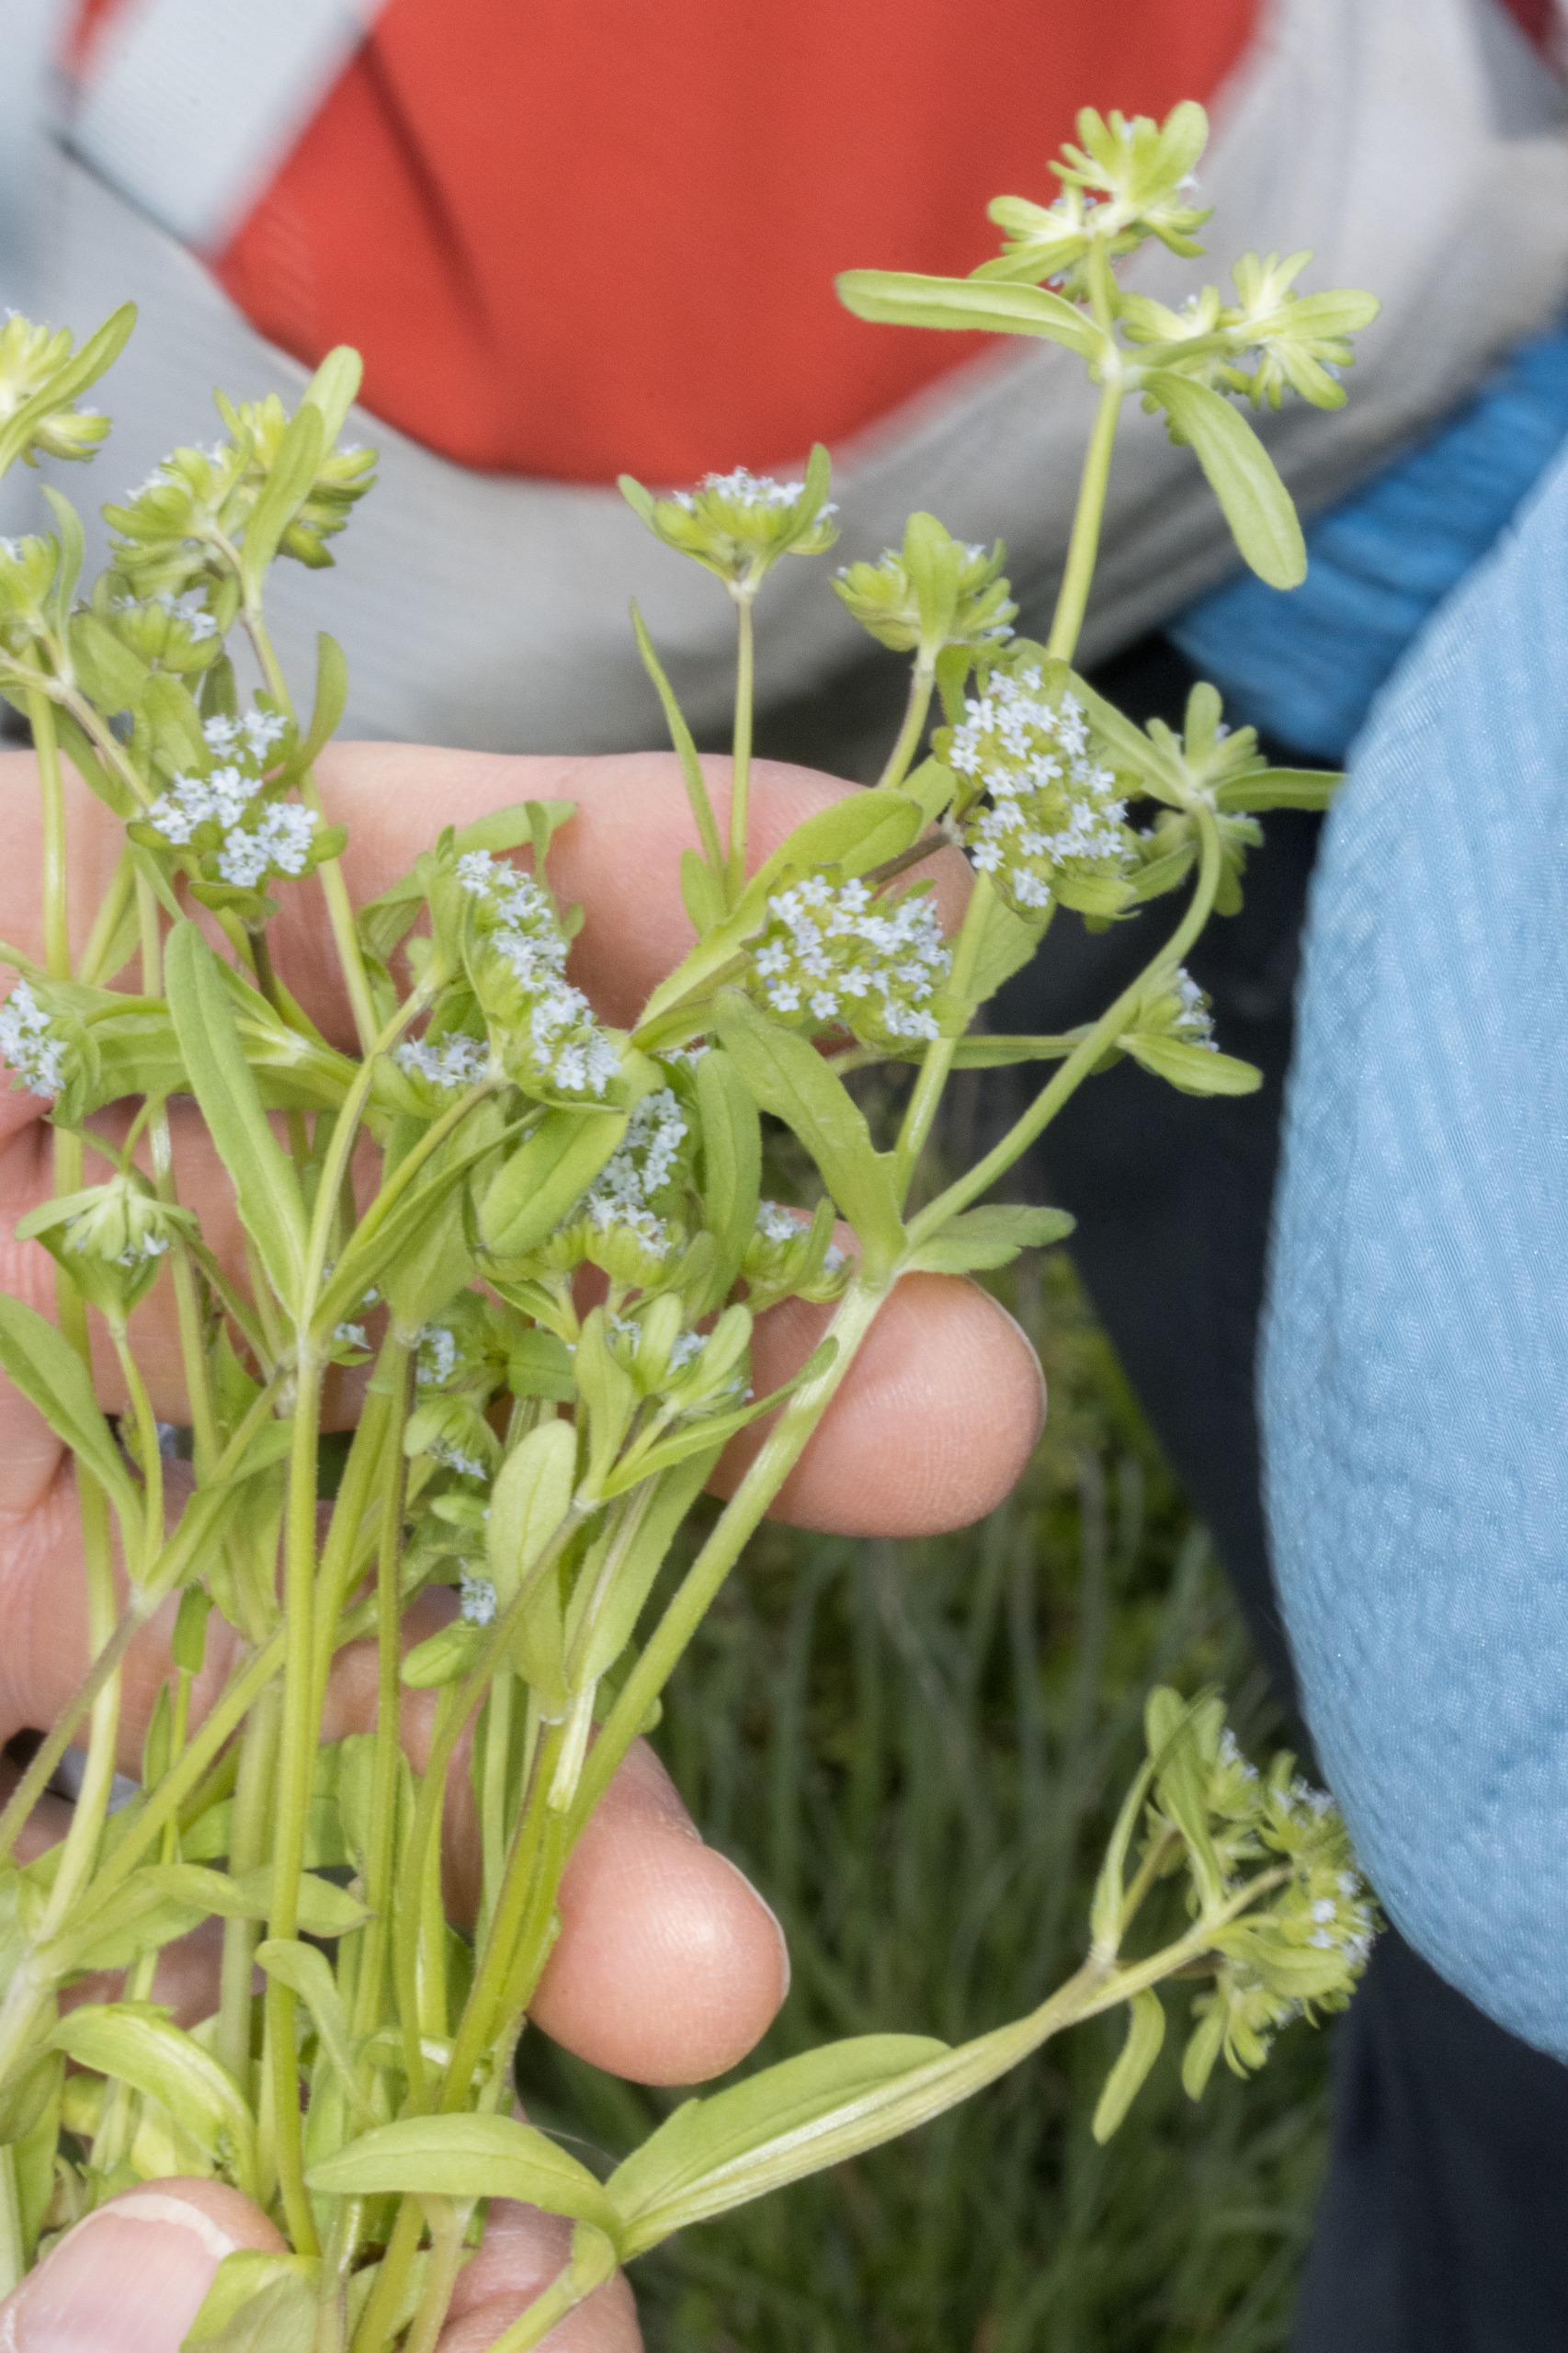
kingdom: Plantae
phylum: Tracheophyta
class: Magnoliopsida
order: Dipsacales
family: Caprifoliaceae
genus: Valerianella
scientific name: Valerianella locusta
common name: Tandfri vårsalat
